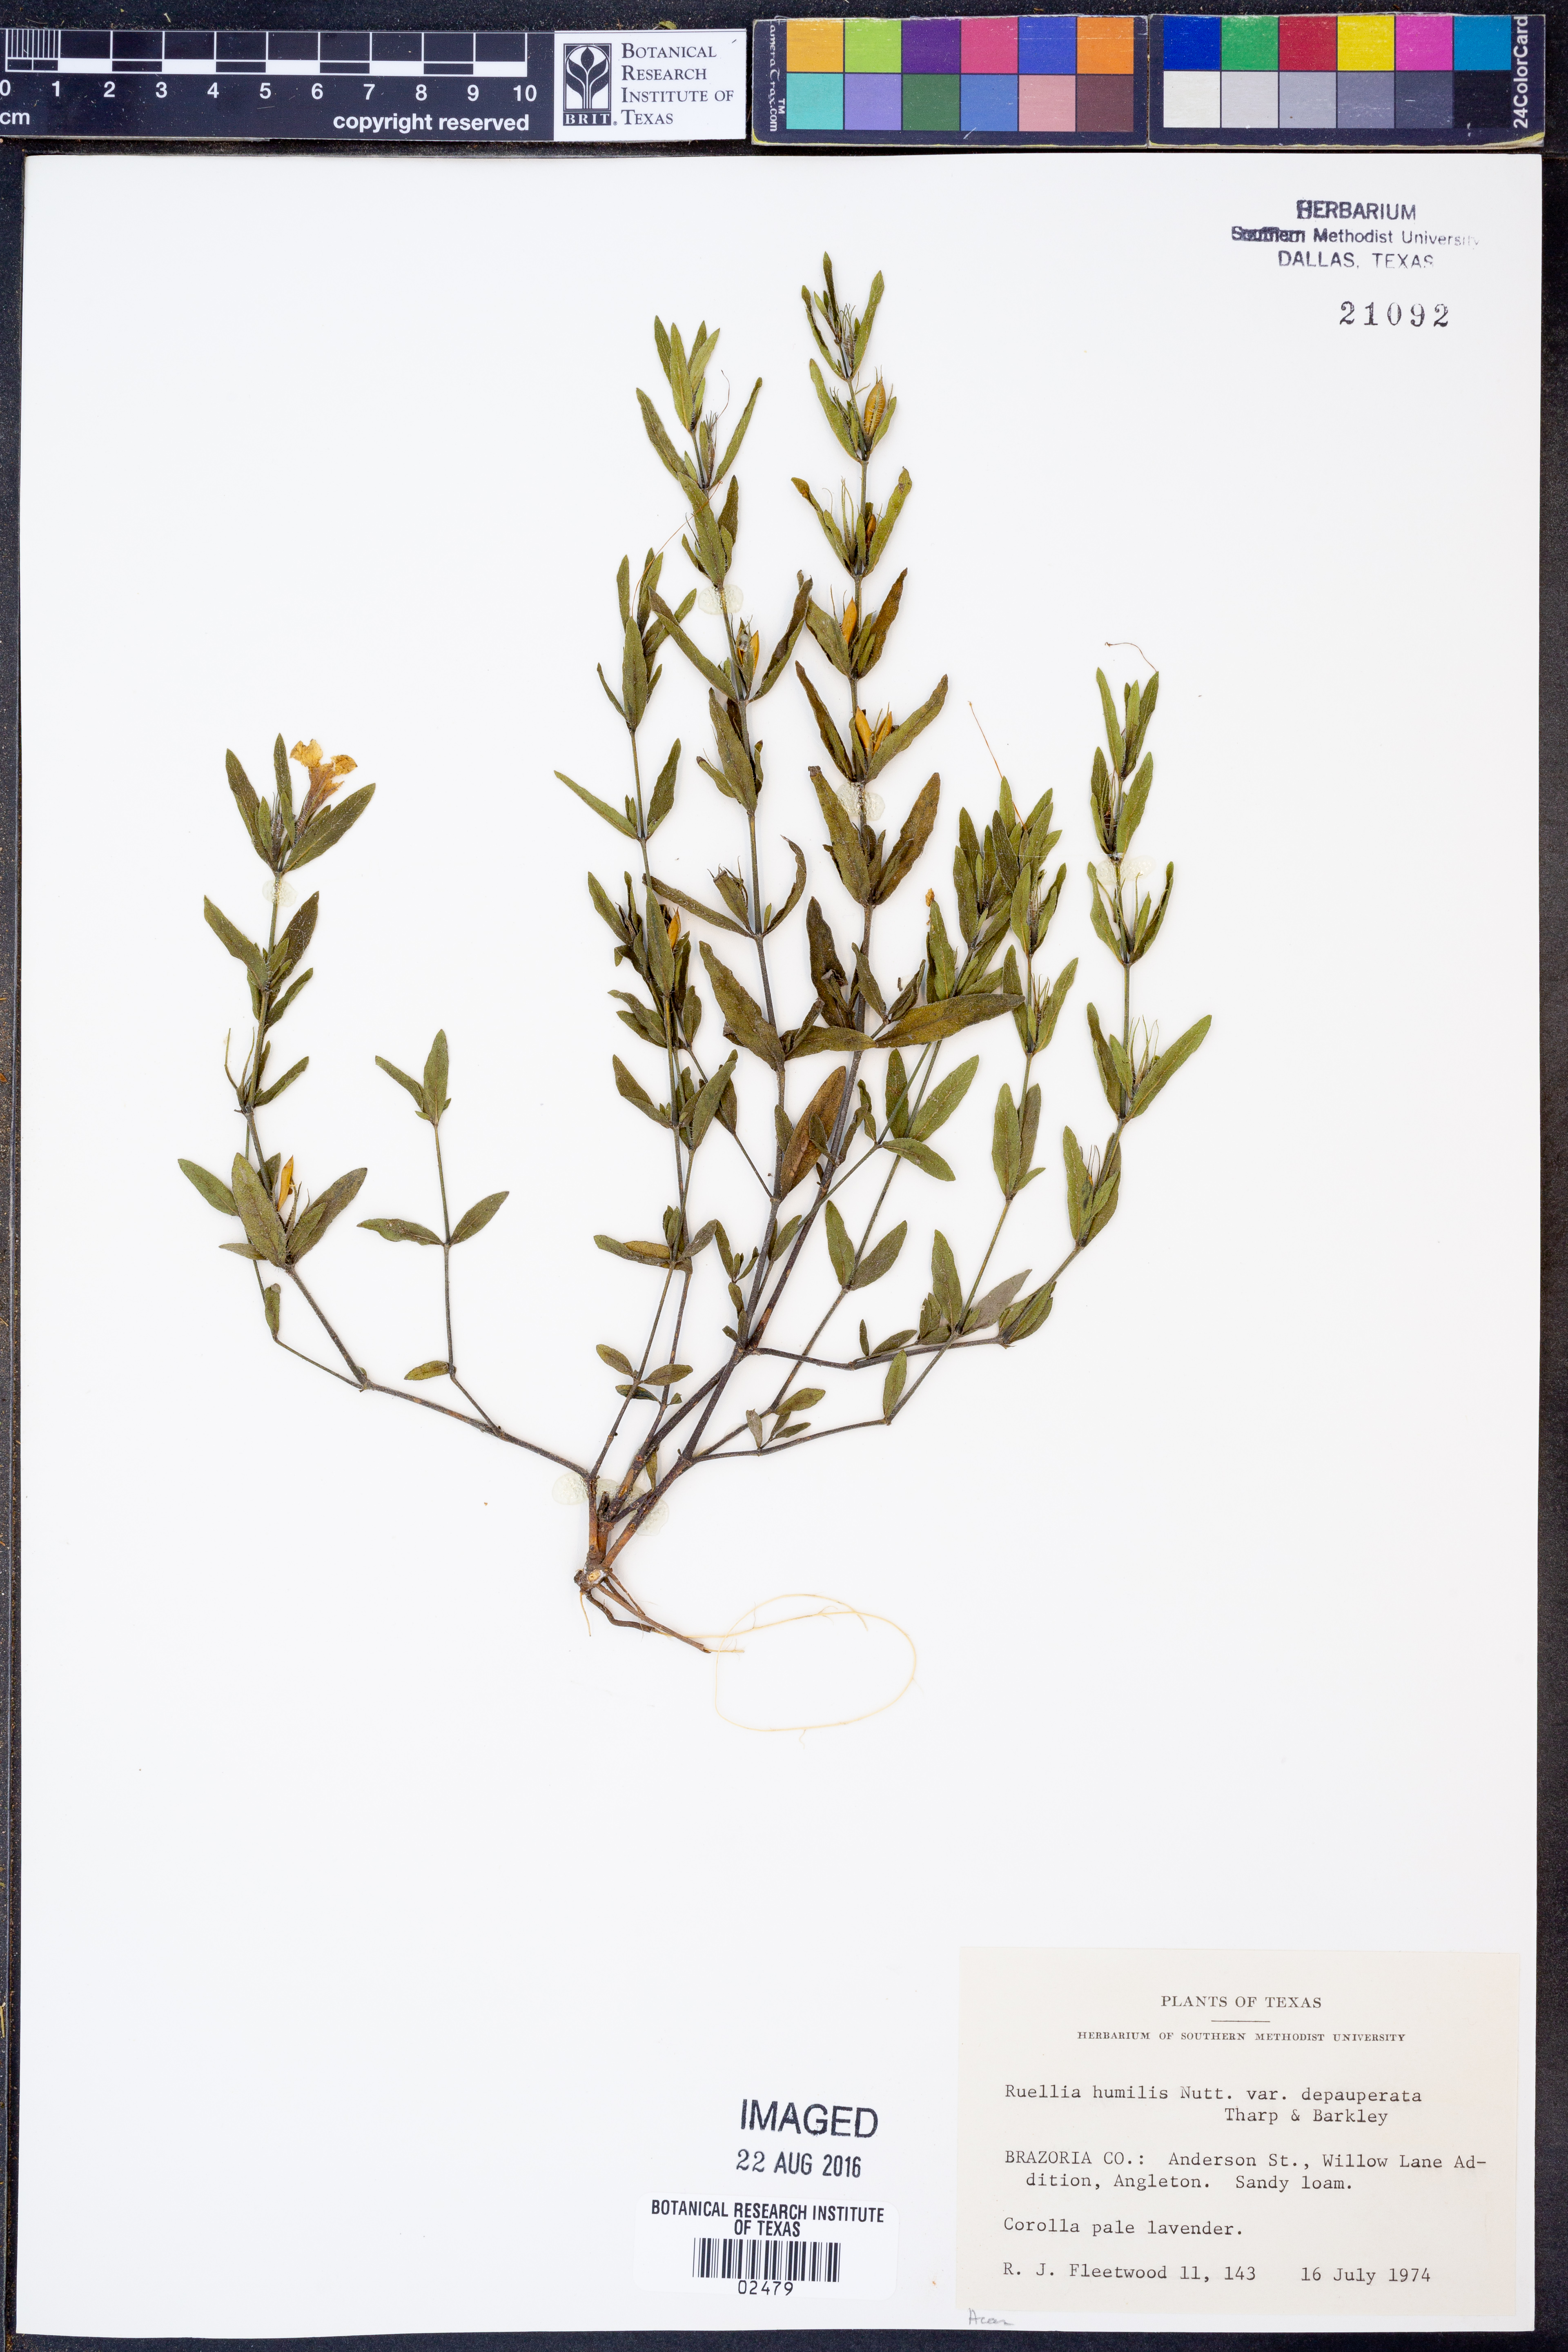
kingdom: Plantae
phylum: Tracheophyta
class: Magnoliopsida
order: Lamiales
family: Acanthaceae
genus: Ruellia
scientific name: Ruellia humilis
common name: Fringe-leaf ruellia
